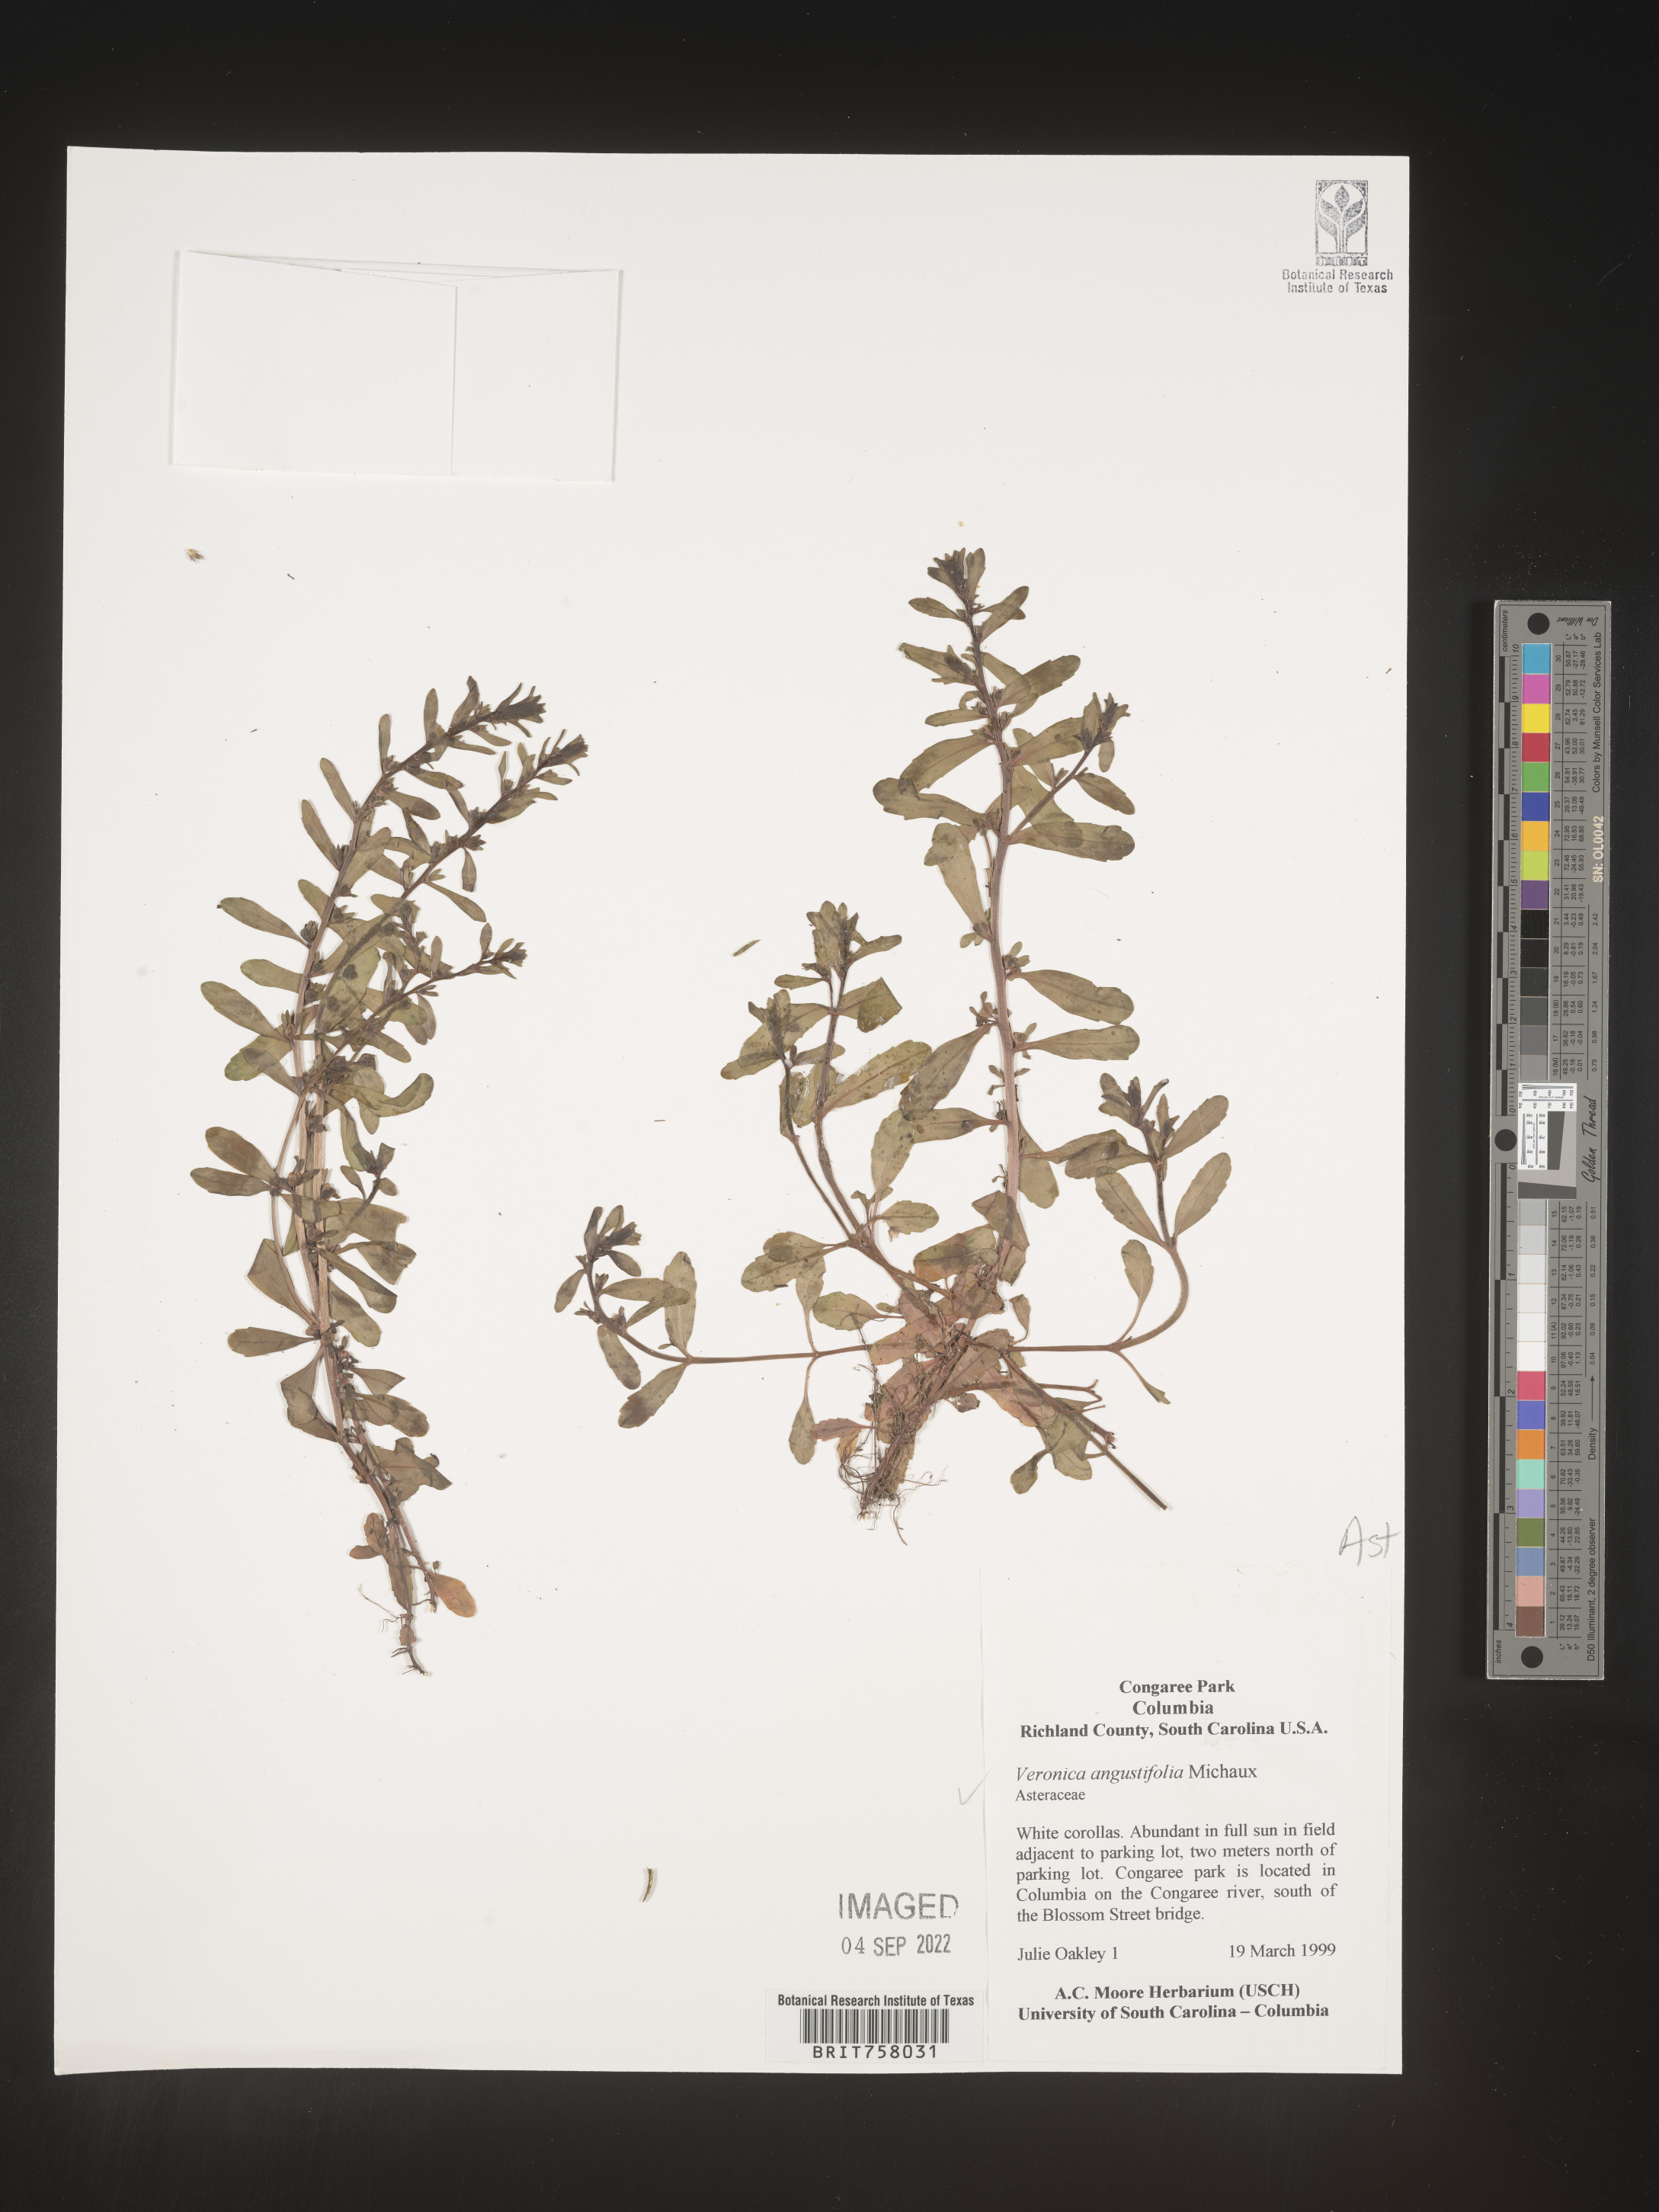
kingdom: Plantae
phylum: Tracheophyta
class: Magnoliopsida
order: Asterales
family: Asteraceae
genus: Vernonia
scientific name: Vernonia angustifolia
